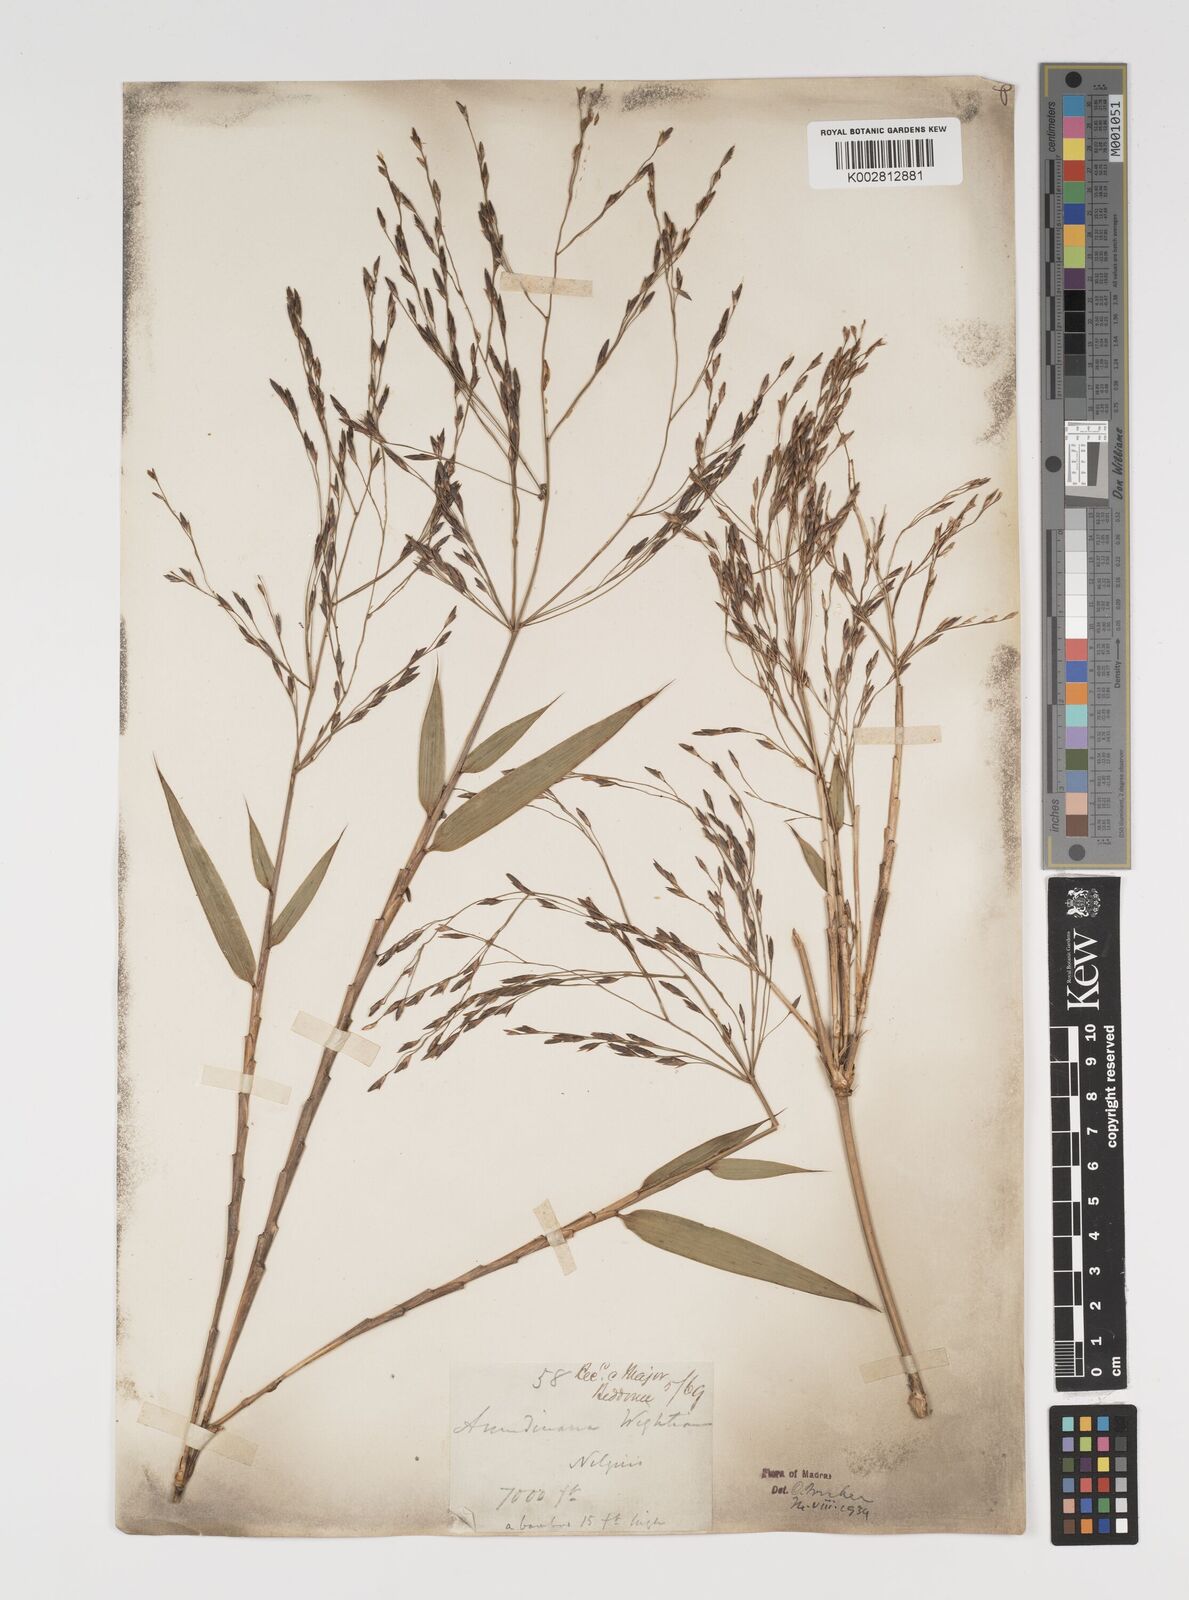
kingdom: Plantae
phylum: Tracheophyta
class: Liliopsida
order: Poales
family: Poaceae
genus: Kuruna
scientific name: Kuruna wightiana
